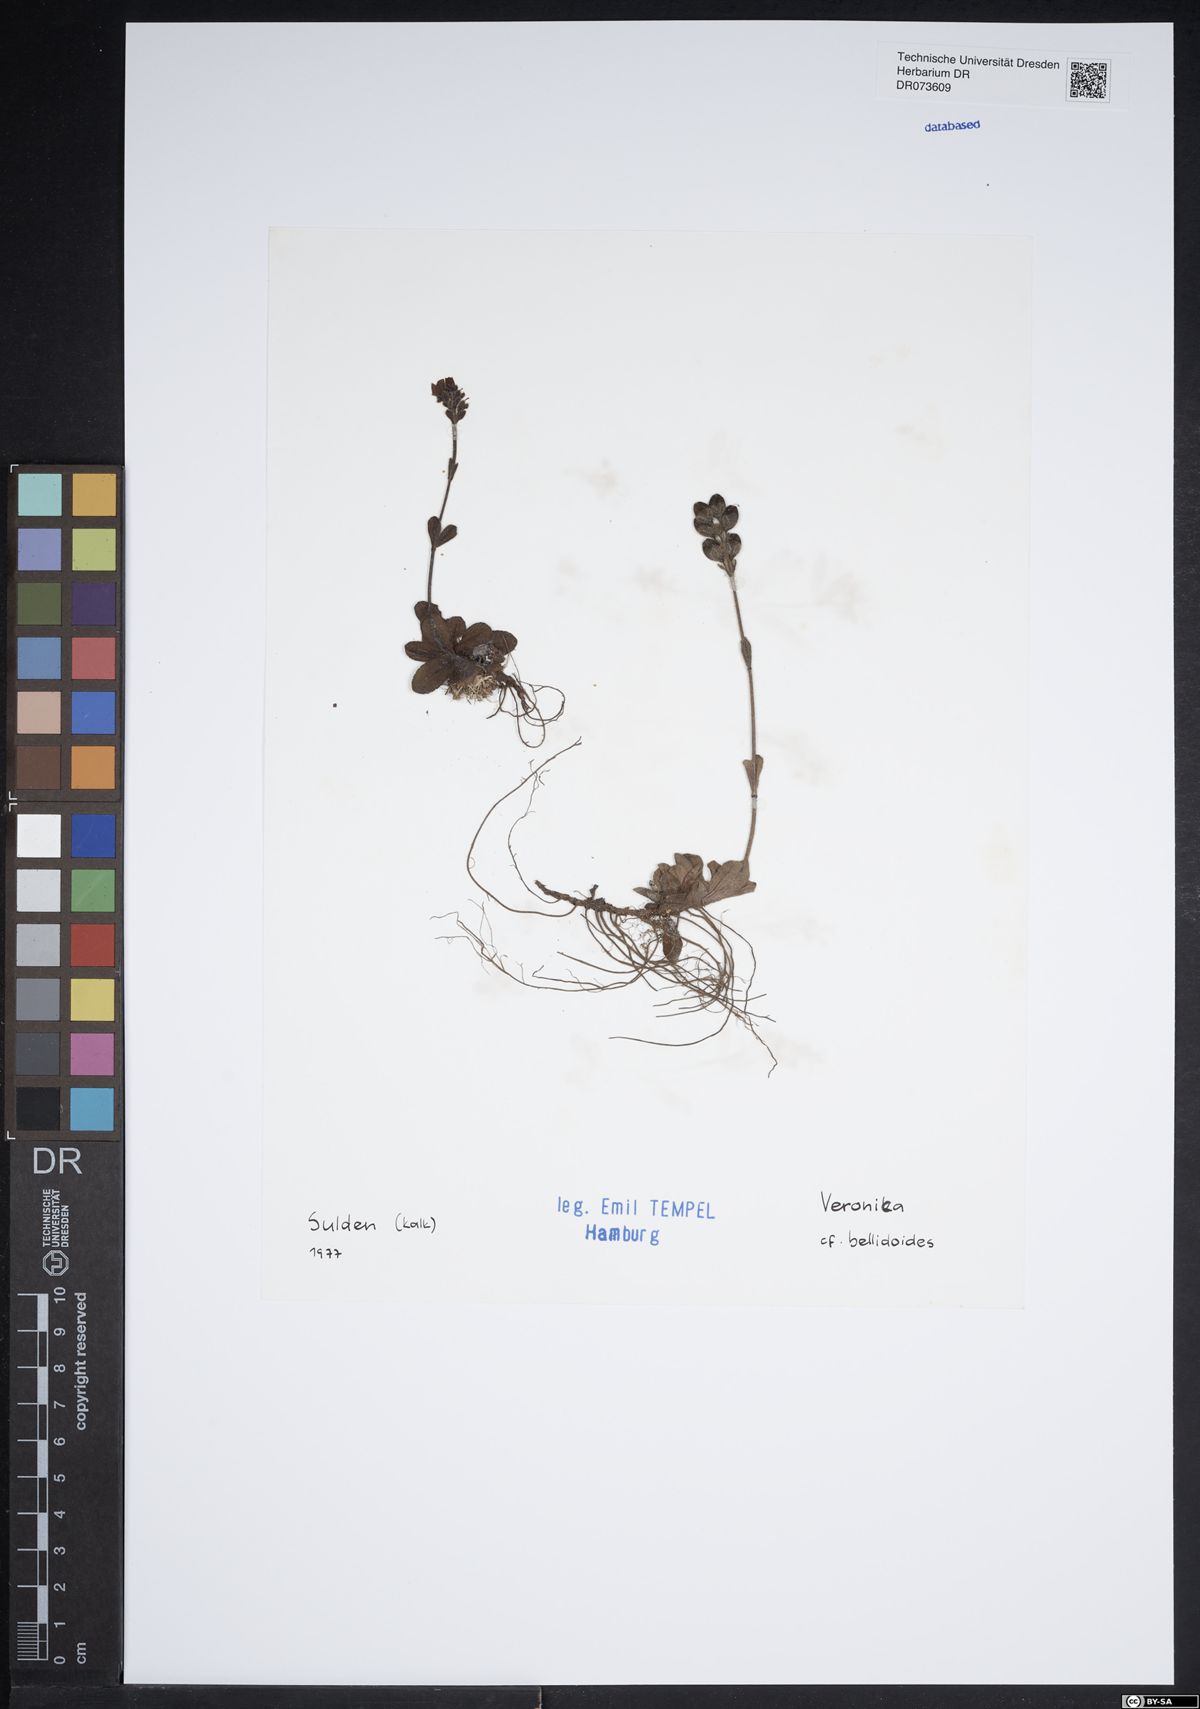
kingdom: Plantae
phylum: Tracheophyta
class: Magnoliopsida
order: Lamiales
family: Plantaginaceae
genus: Veronica
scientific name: Veronica bellidioides
